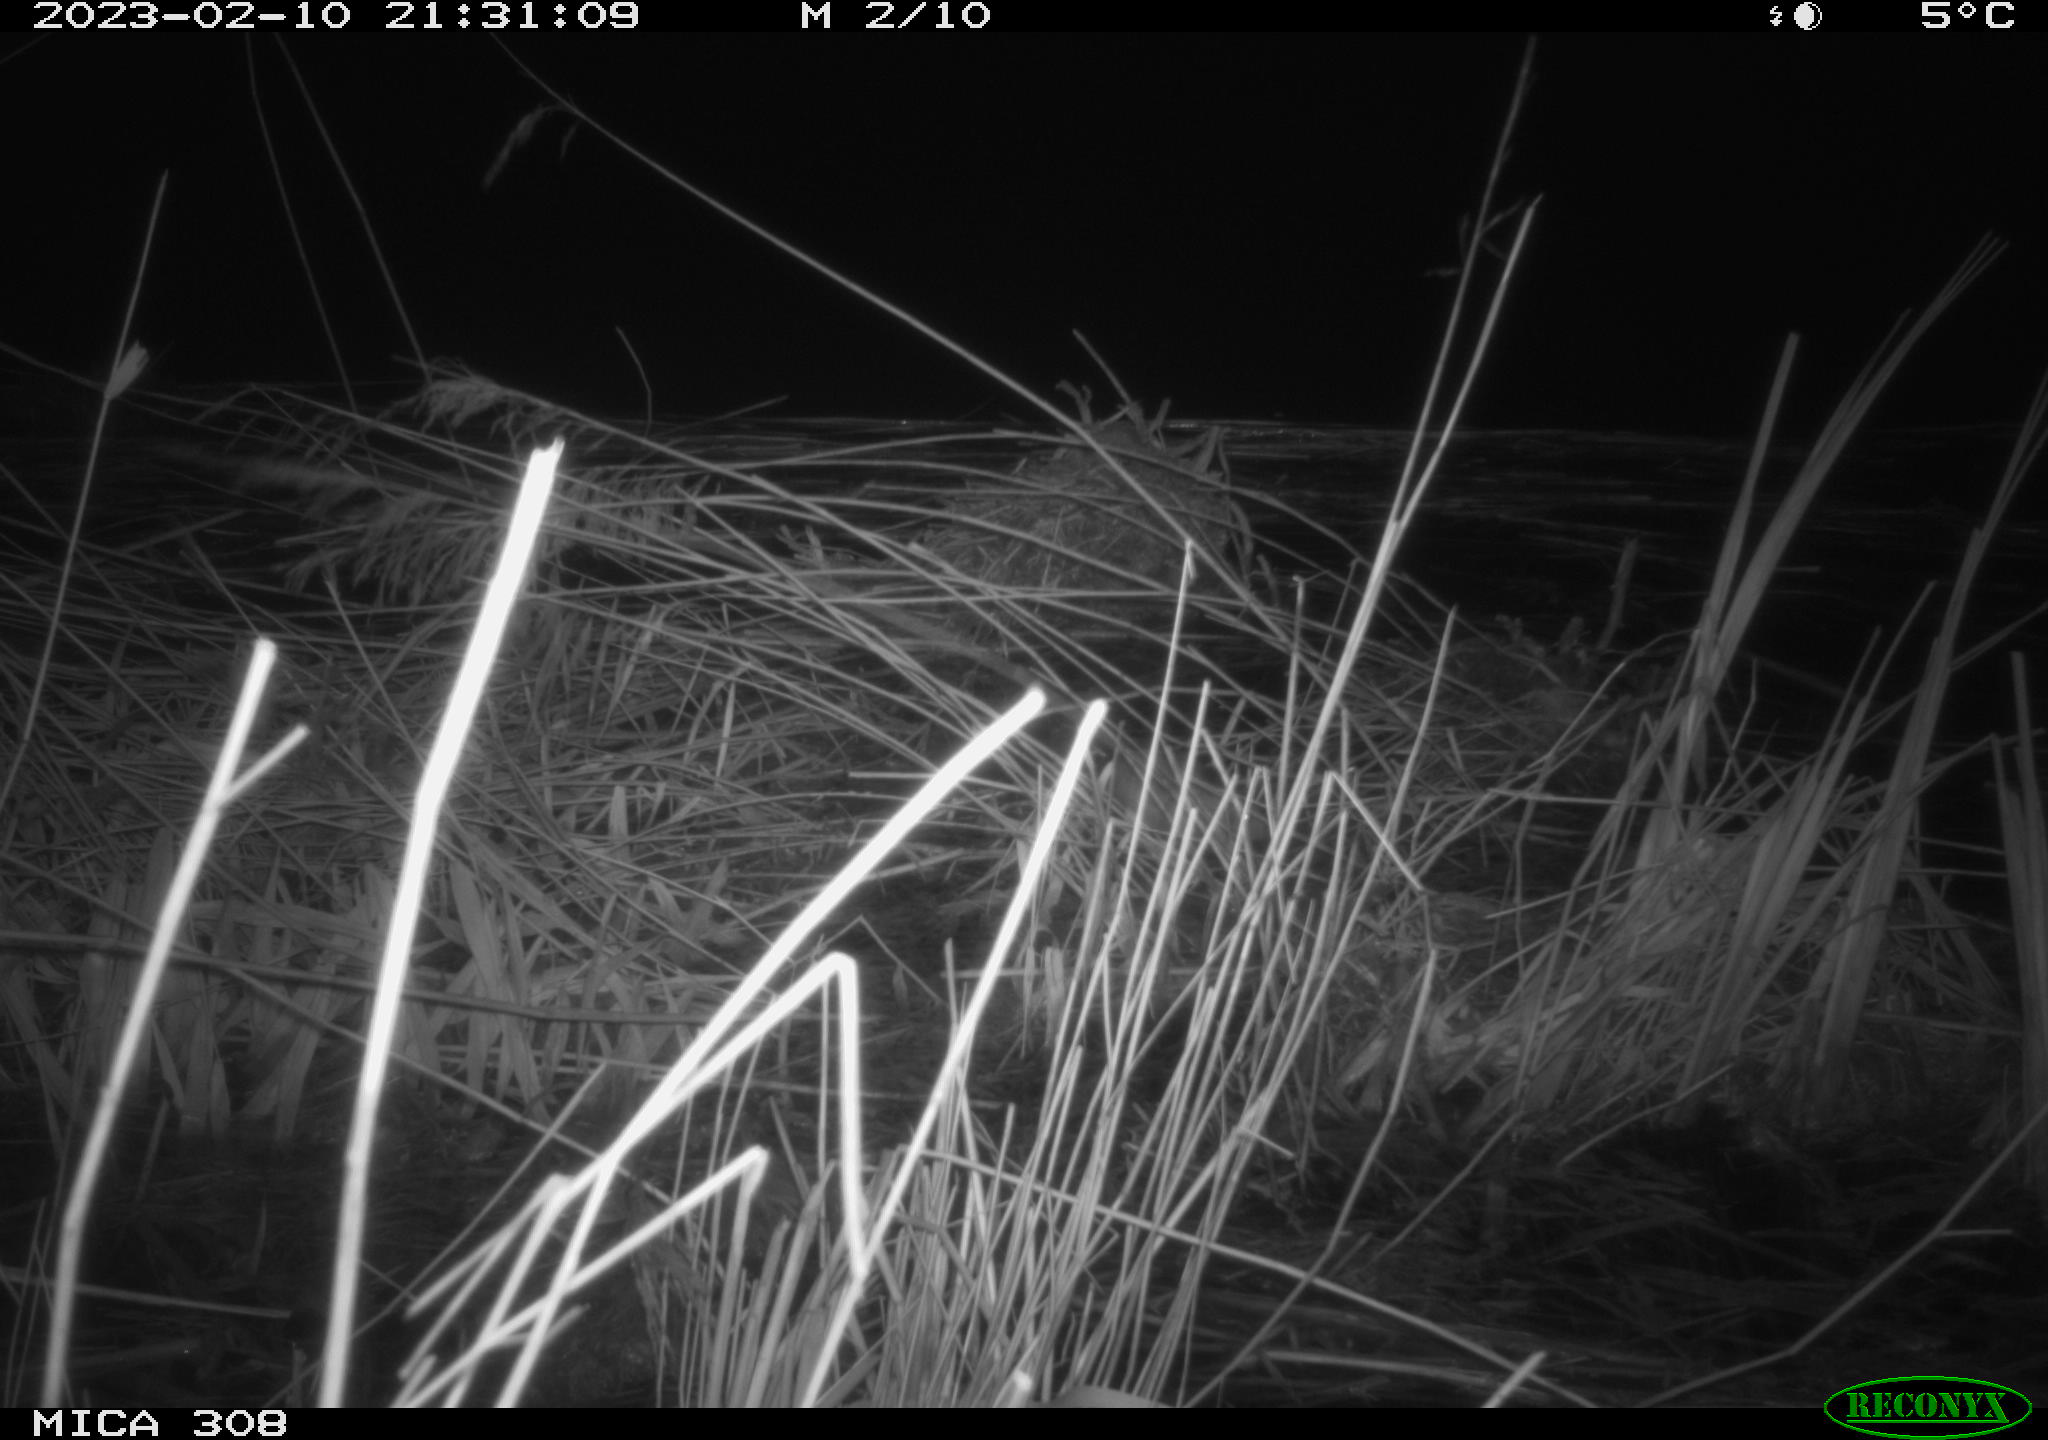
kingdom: Animalia
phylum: Chordata
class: Mammalia
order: Rodentia
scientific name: Rodentia
